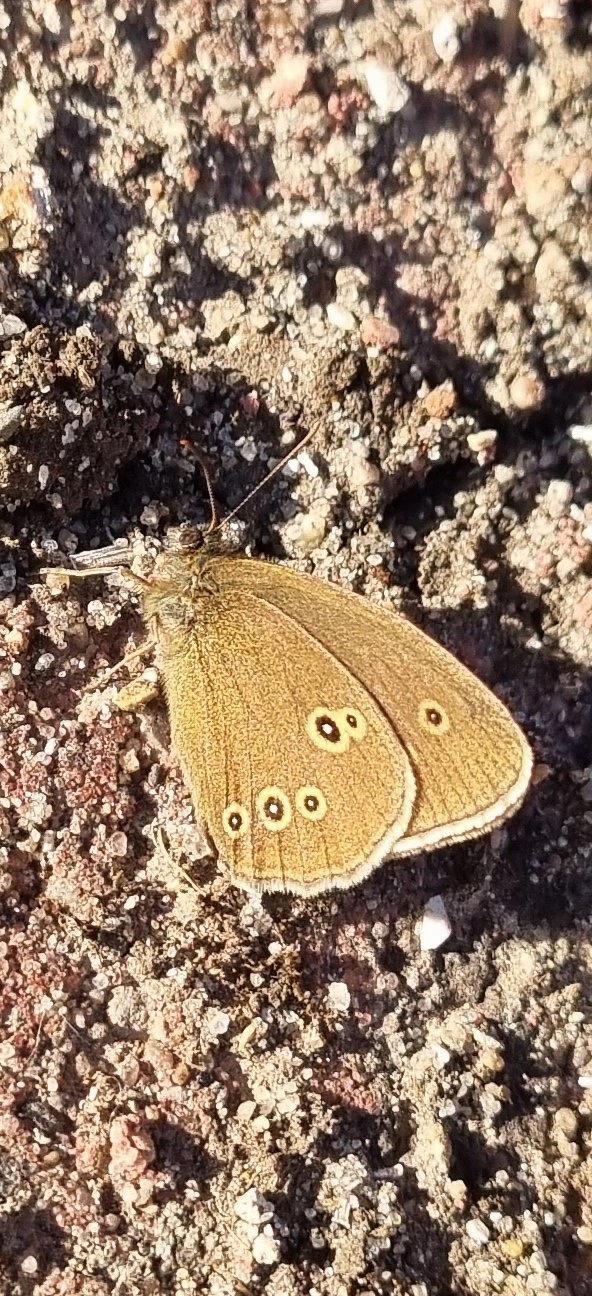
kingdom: Animalia
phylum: Arthropoda
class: Insecta
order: Lepidoptera
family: Nymphalidae
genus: Aphantopus
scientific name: Aphantopus hyperantus
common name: Engrandøje
